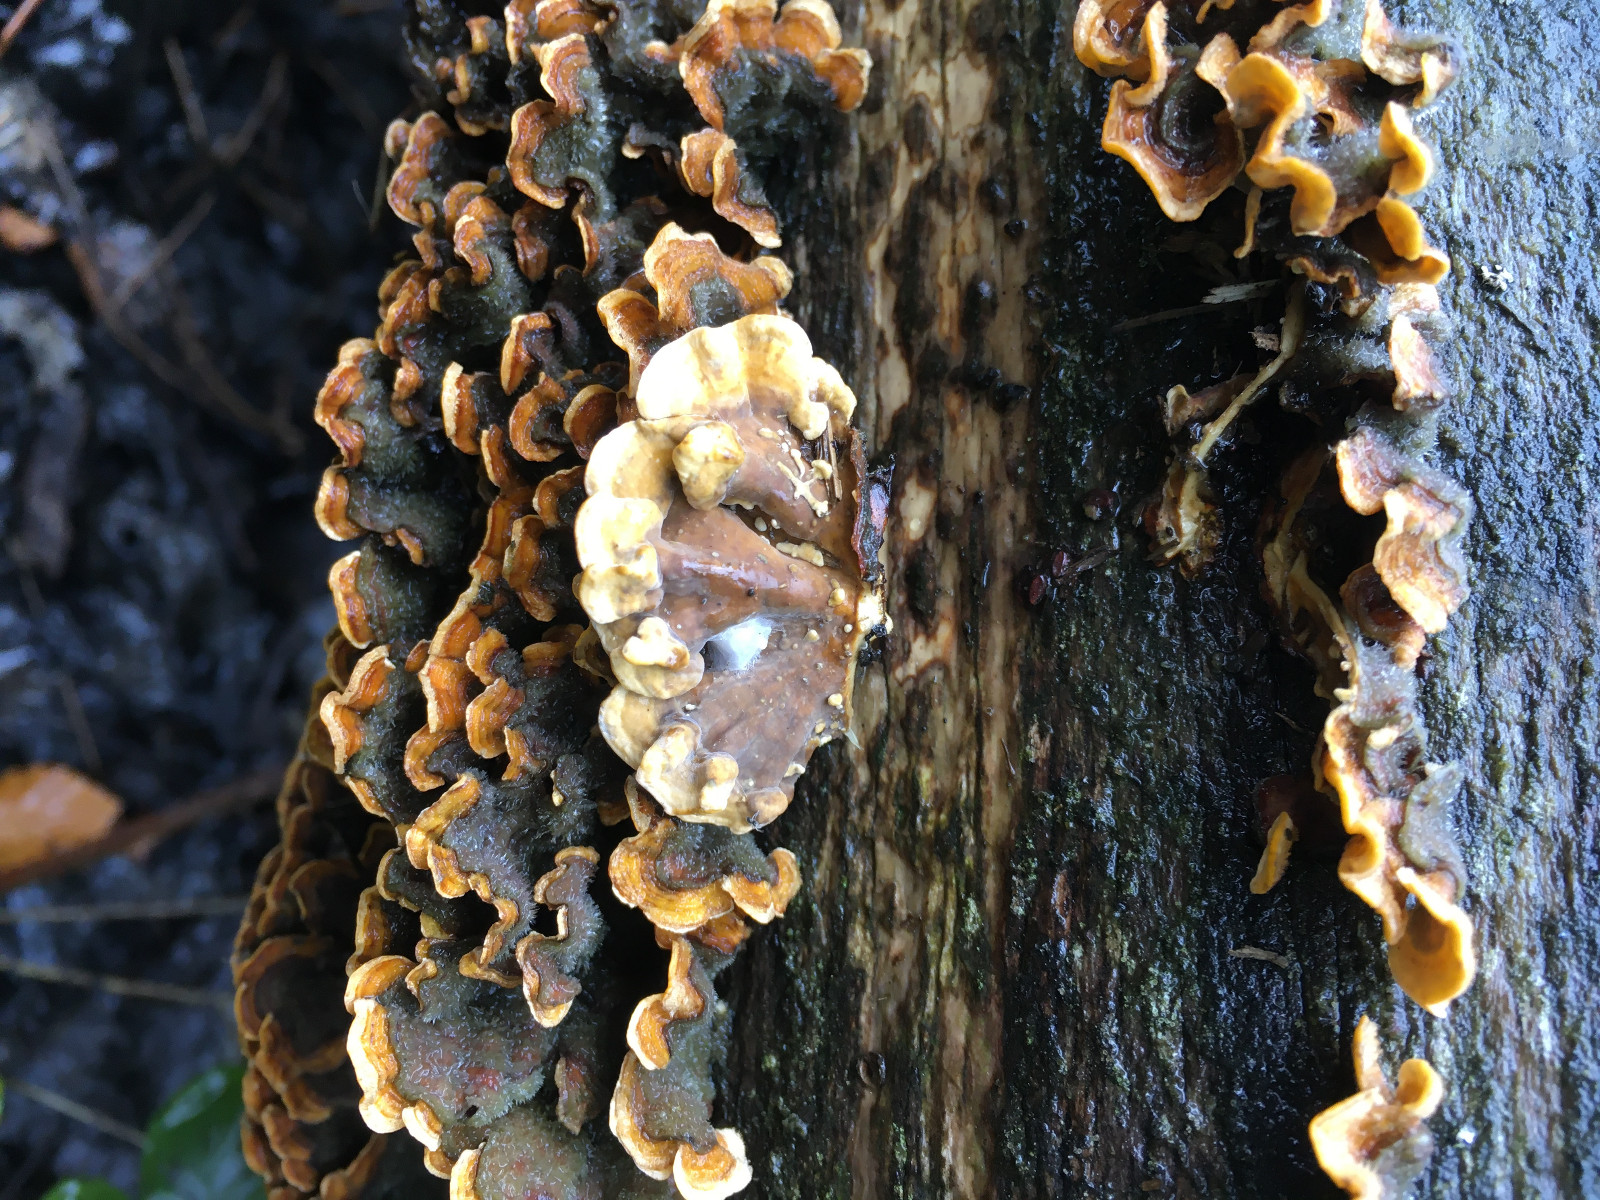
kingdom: Fungi
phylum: Basidiomycota
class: Agaricomycetes
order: Russulales
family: Stereaceae
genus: Stereum
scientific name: Stereum hirsutum
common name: håret lædersvamp
